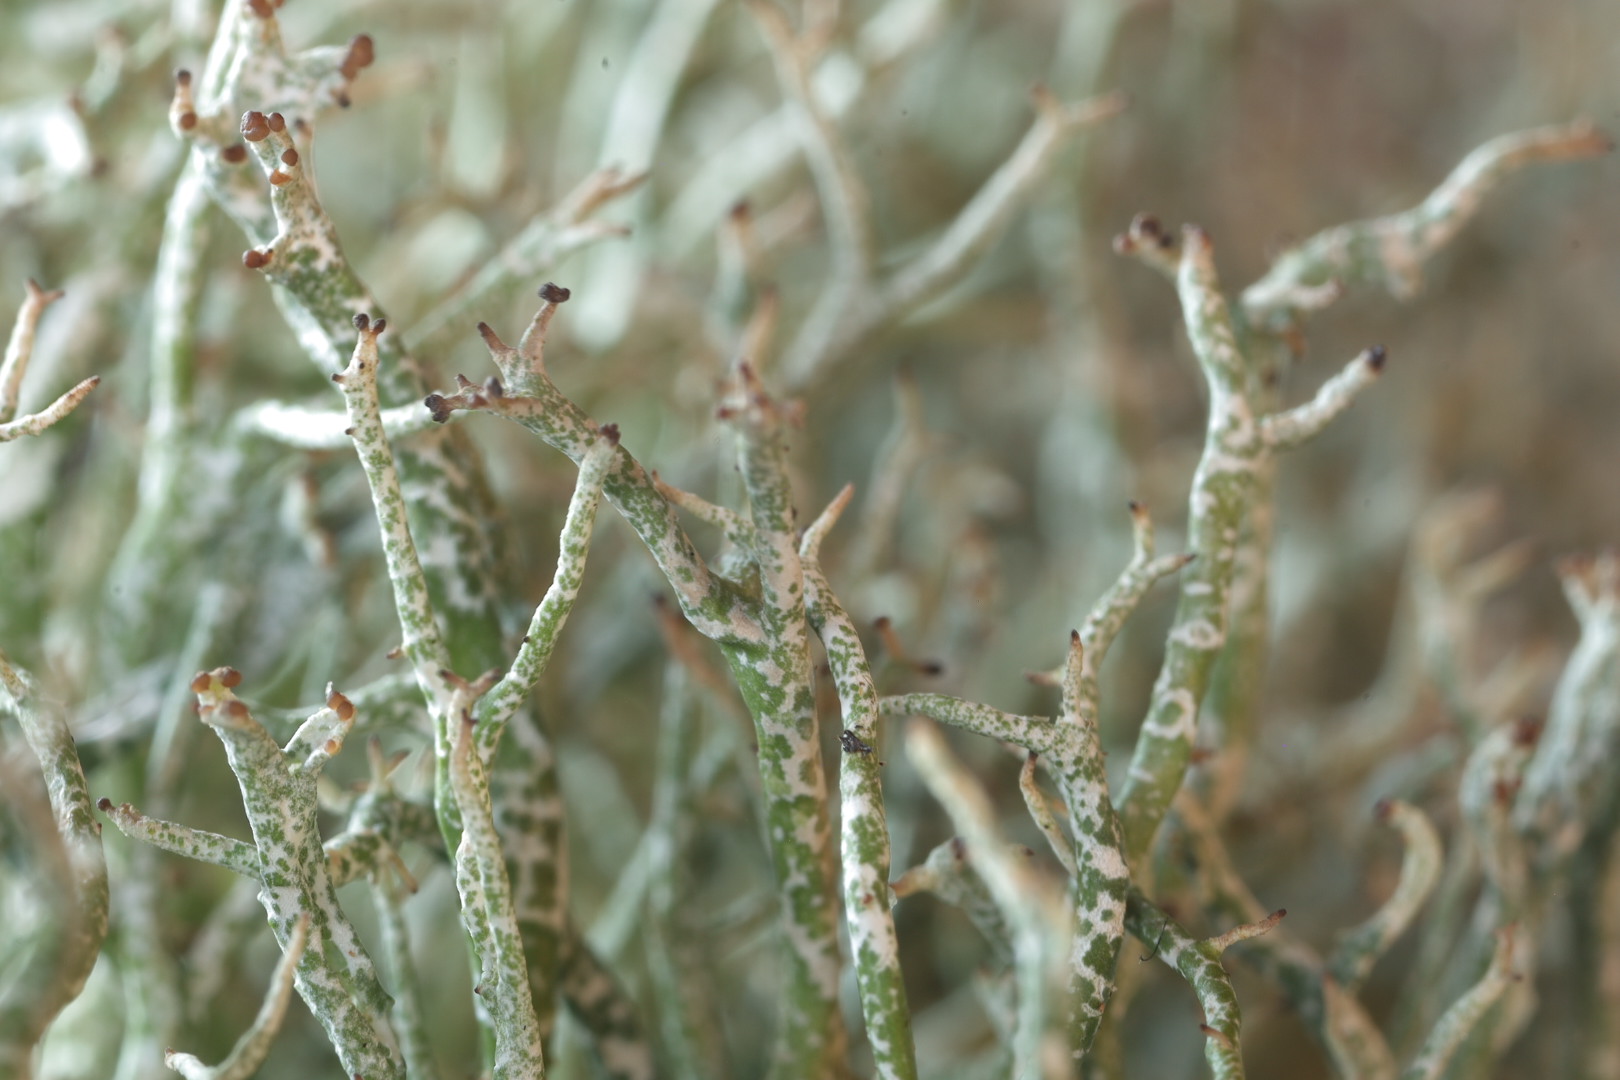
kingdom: Fungi
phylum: Ascomycota
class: Lecanoromycetes
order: Lecanorales
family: Cladoniaceae
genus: Cladonia
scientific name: Cladonia rangiformis
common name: spættet bægerlav
